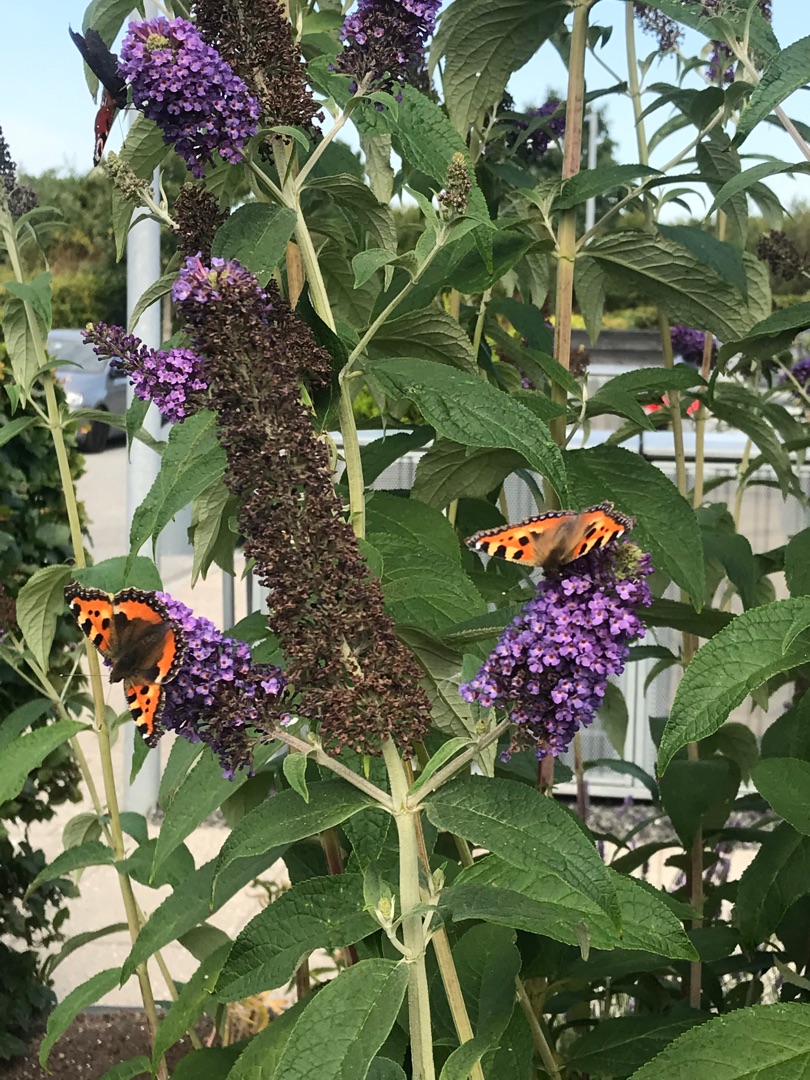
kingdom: Animalia
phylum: Arthropoda
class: Insecta
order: Lepidoptera
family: Nymphalidae
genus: Aglais
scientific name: Aglais urticae
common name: Nældens takvinge
